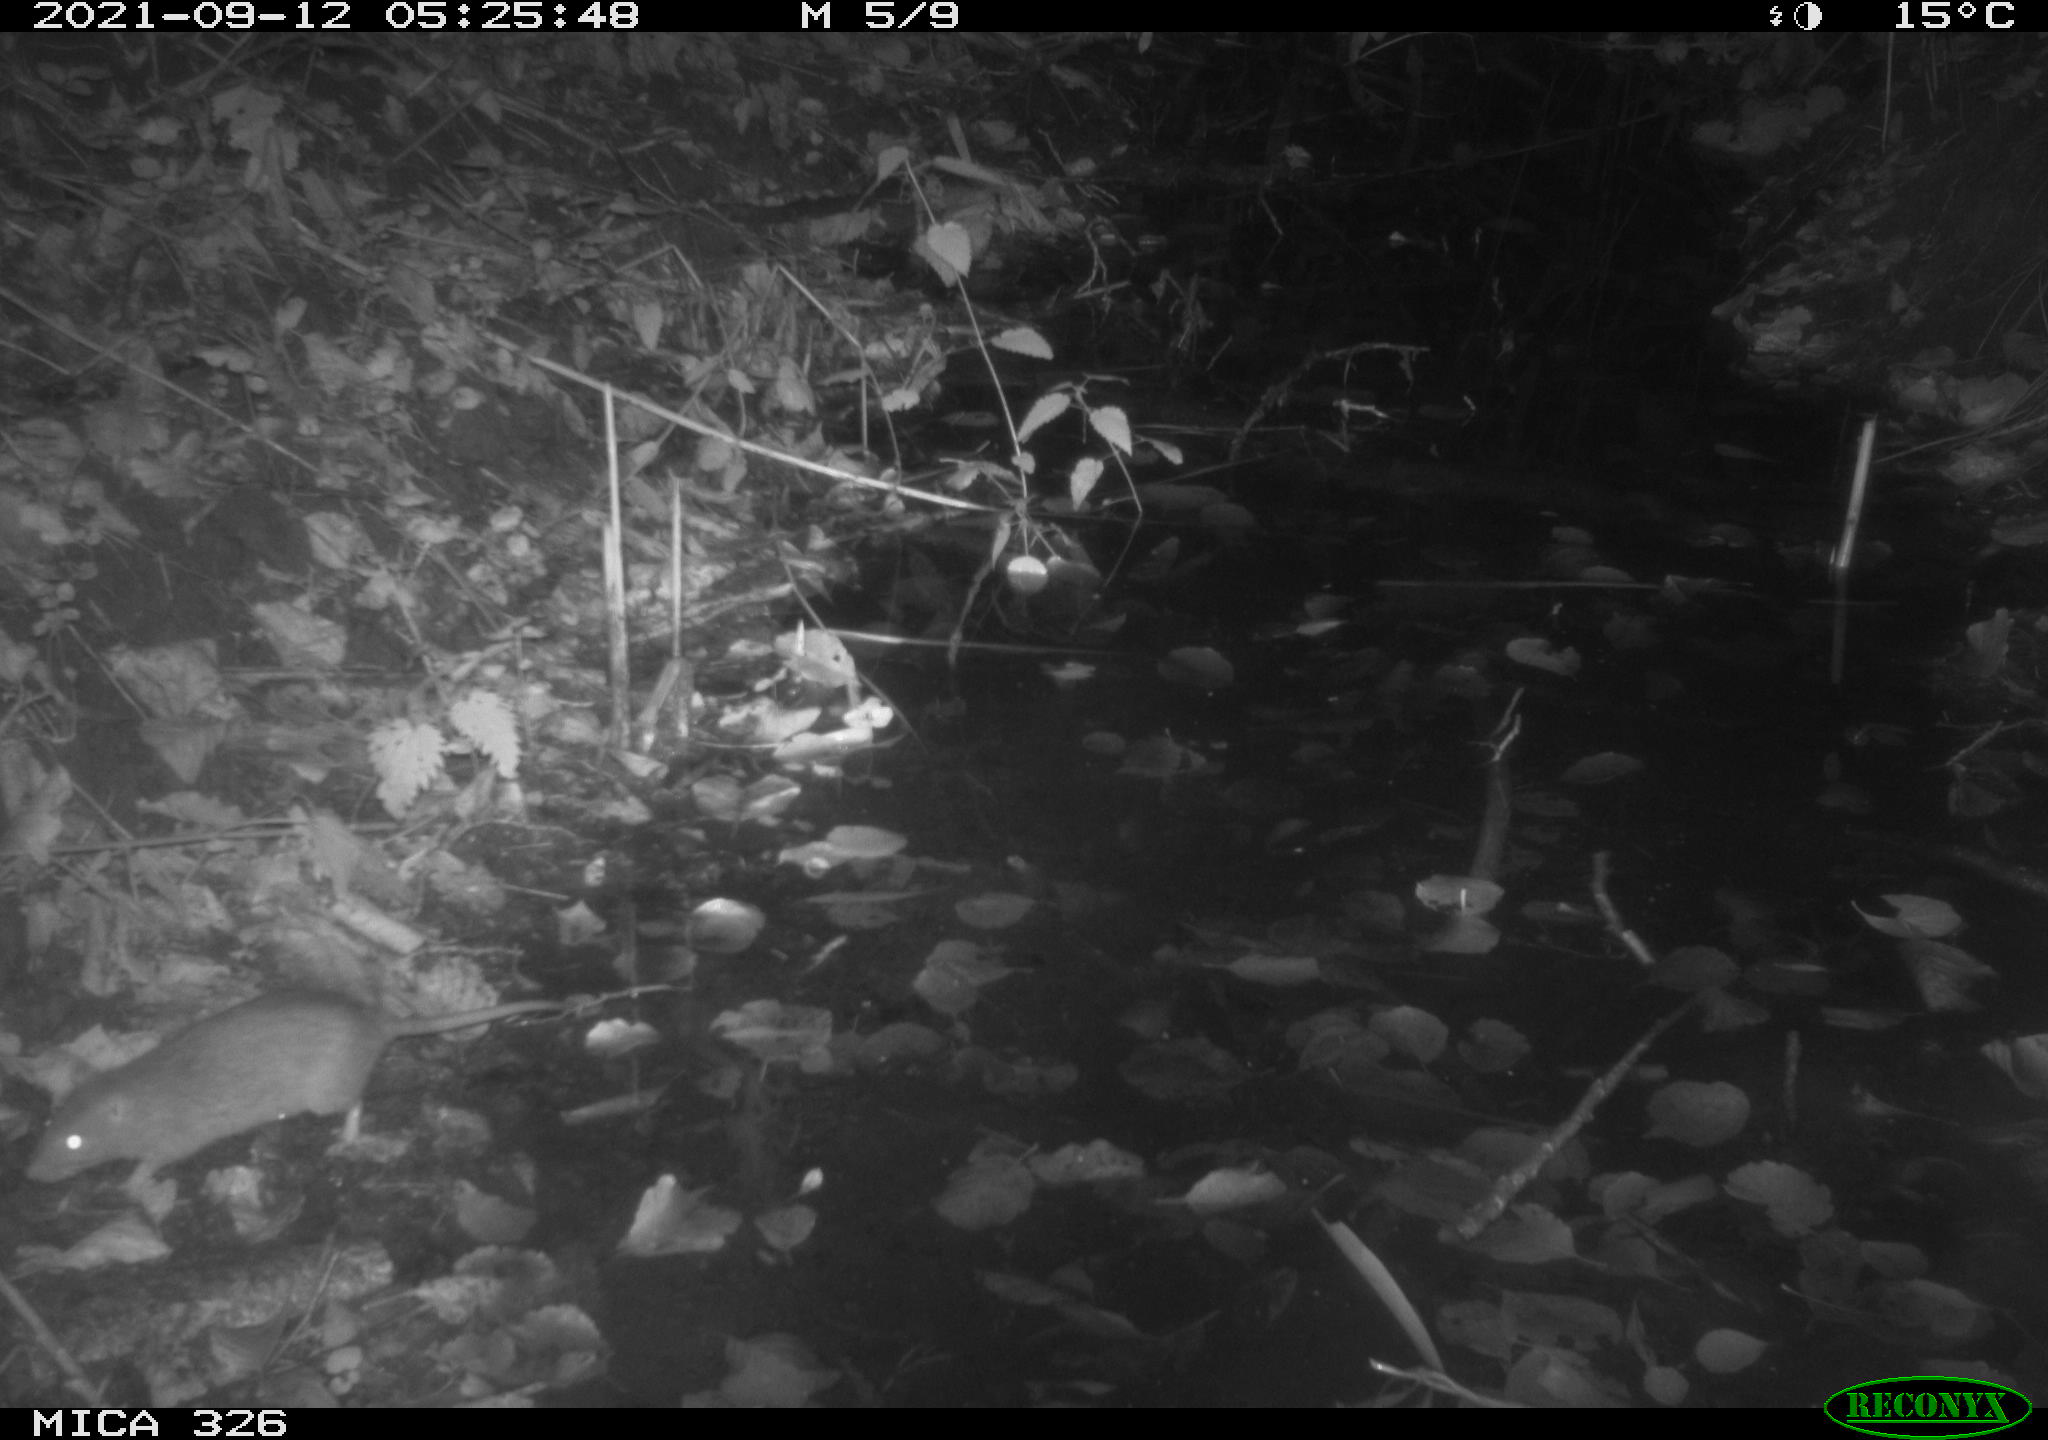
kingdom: Animalia
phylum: Chordata
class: Mammalia
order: Rodentia
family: Muridae
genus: Rattus
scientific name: Rattus norvegicus
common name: Brown rat
